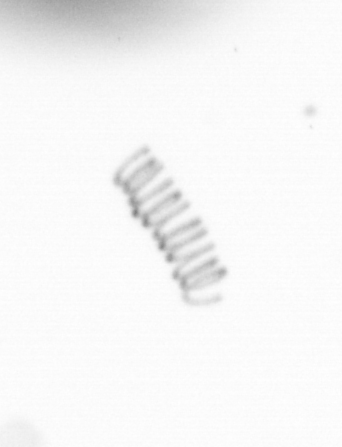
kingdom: Chromista
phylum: Ochrophyta
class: Bacillariophyceae
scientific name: Bacillariophyceae
